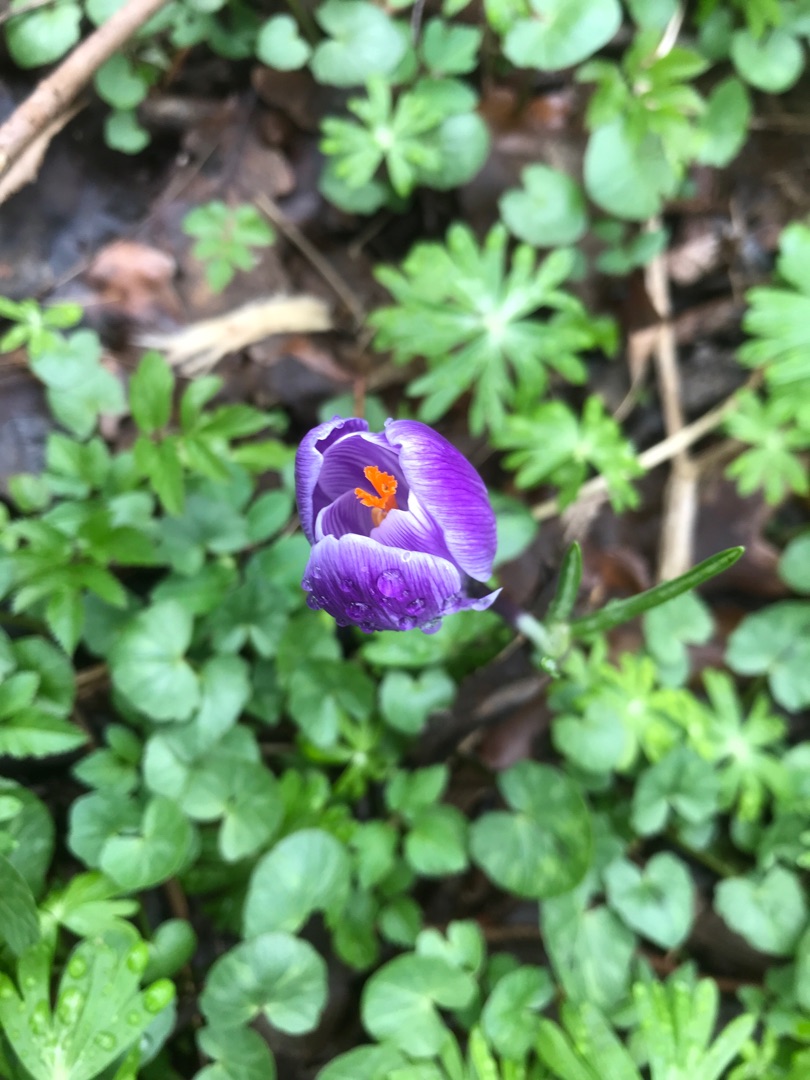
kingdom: Plantae
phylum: Tracheophyta
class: Liliopsida
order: Asparagales
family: Iridaceae
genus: Crocus
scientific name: Crocus vernus
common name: Vår-krokus
